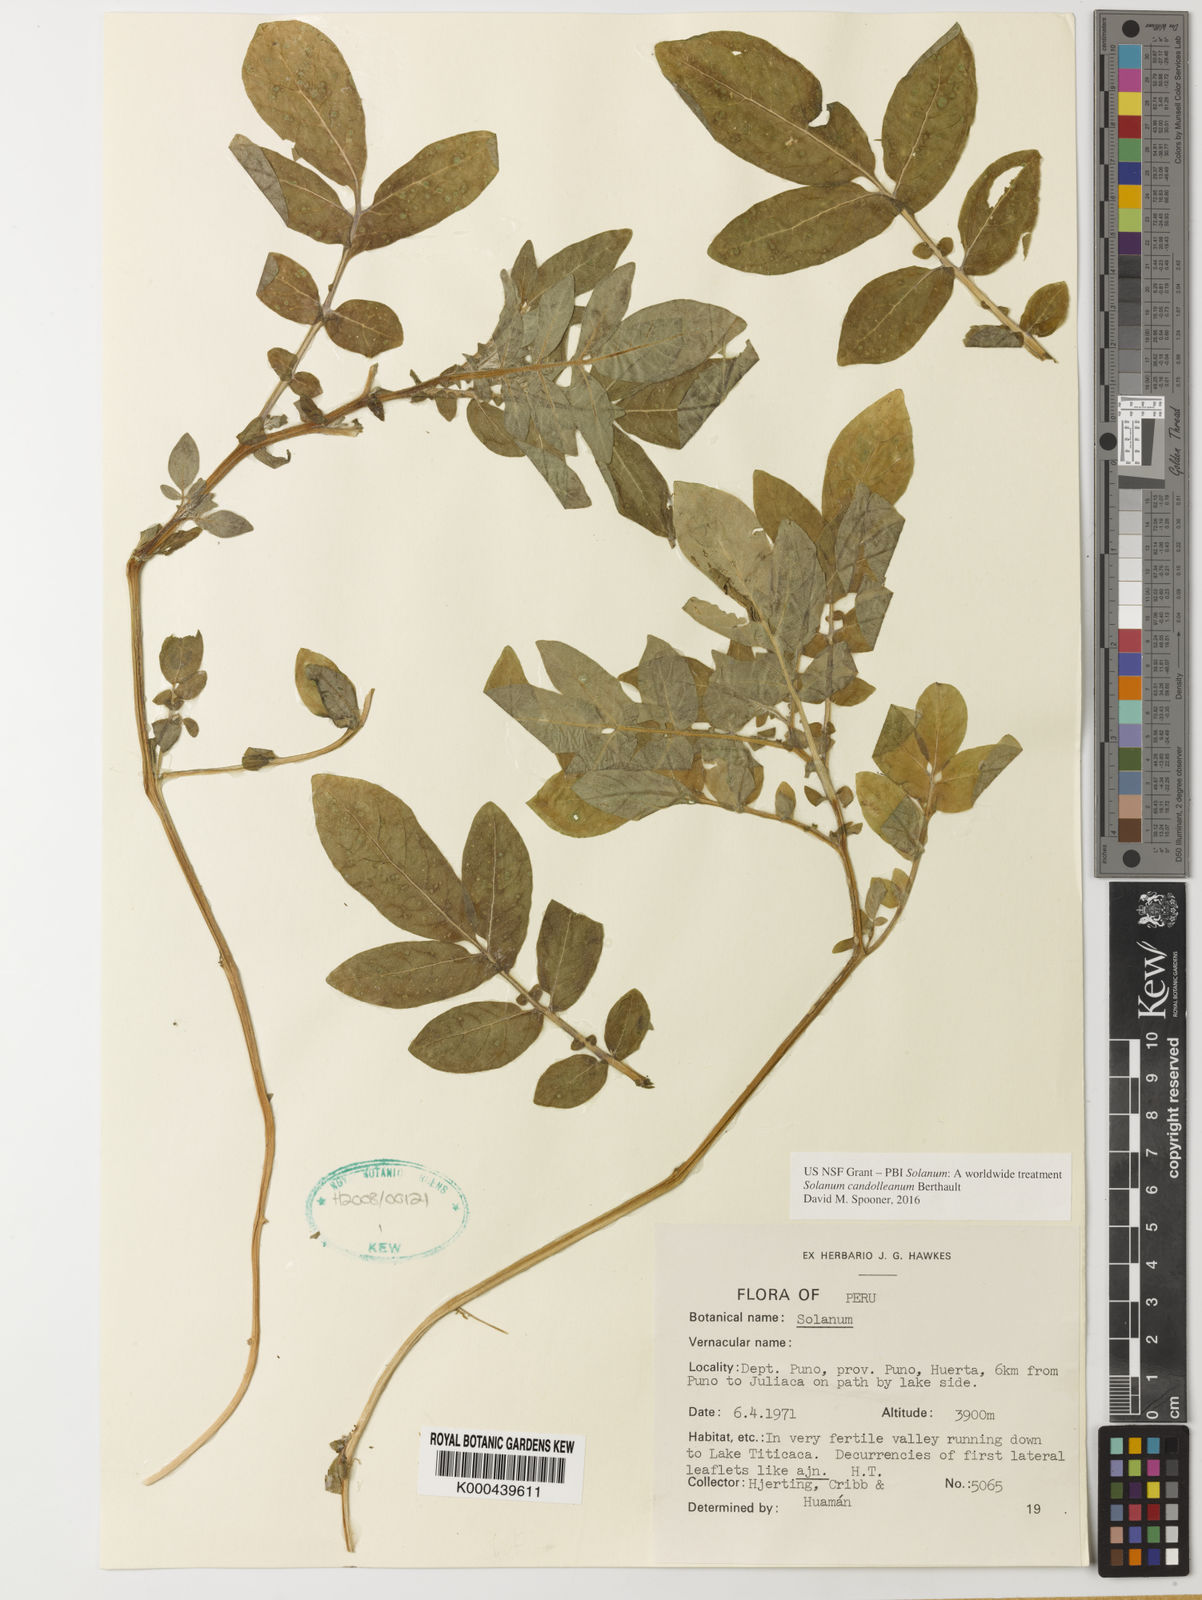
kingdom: Plantae
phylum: Tracheophyta
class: Magnoliopsida
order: Solanales
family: Solanaceae
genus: Solanum
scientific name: Solanum candolleanum
